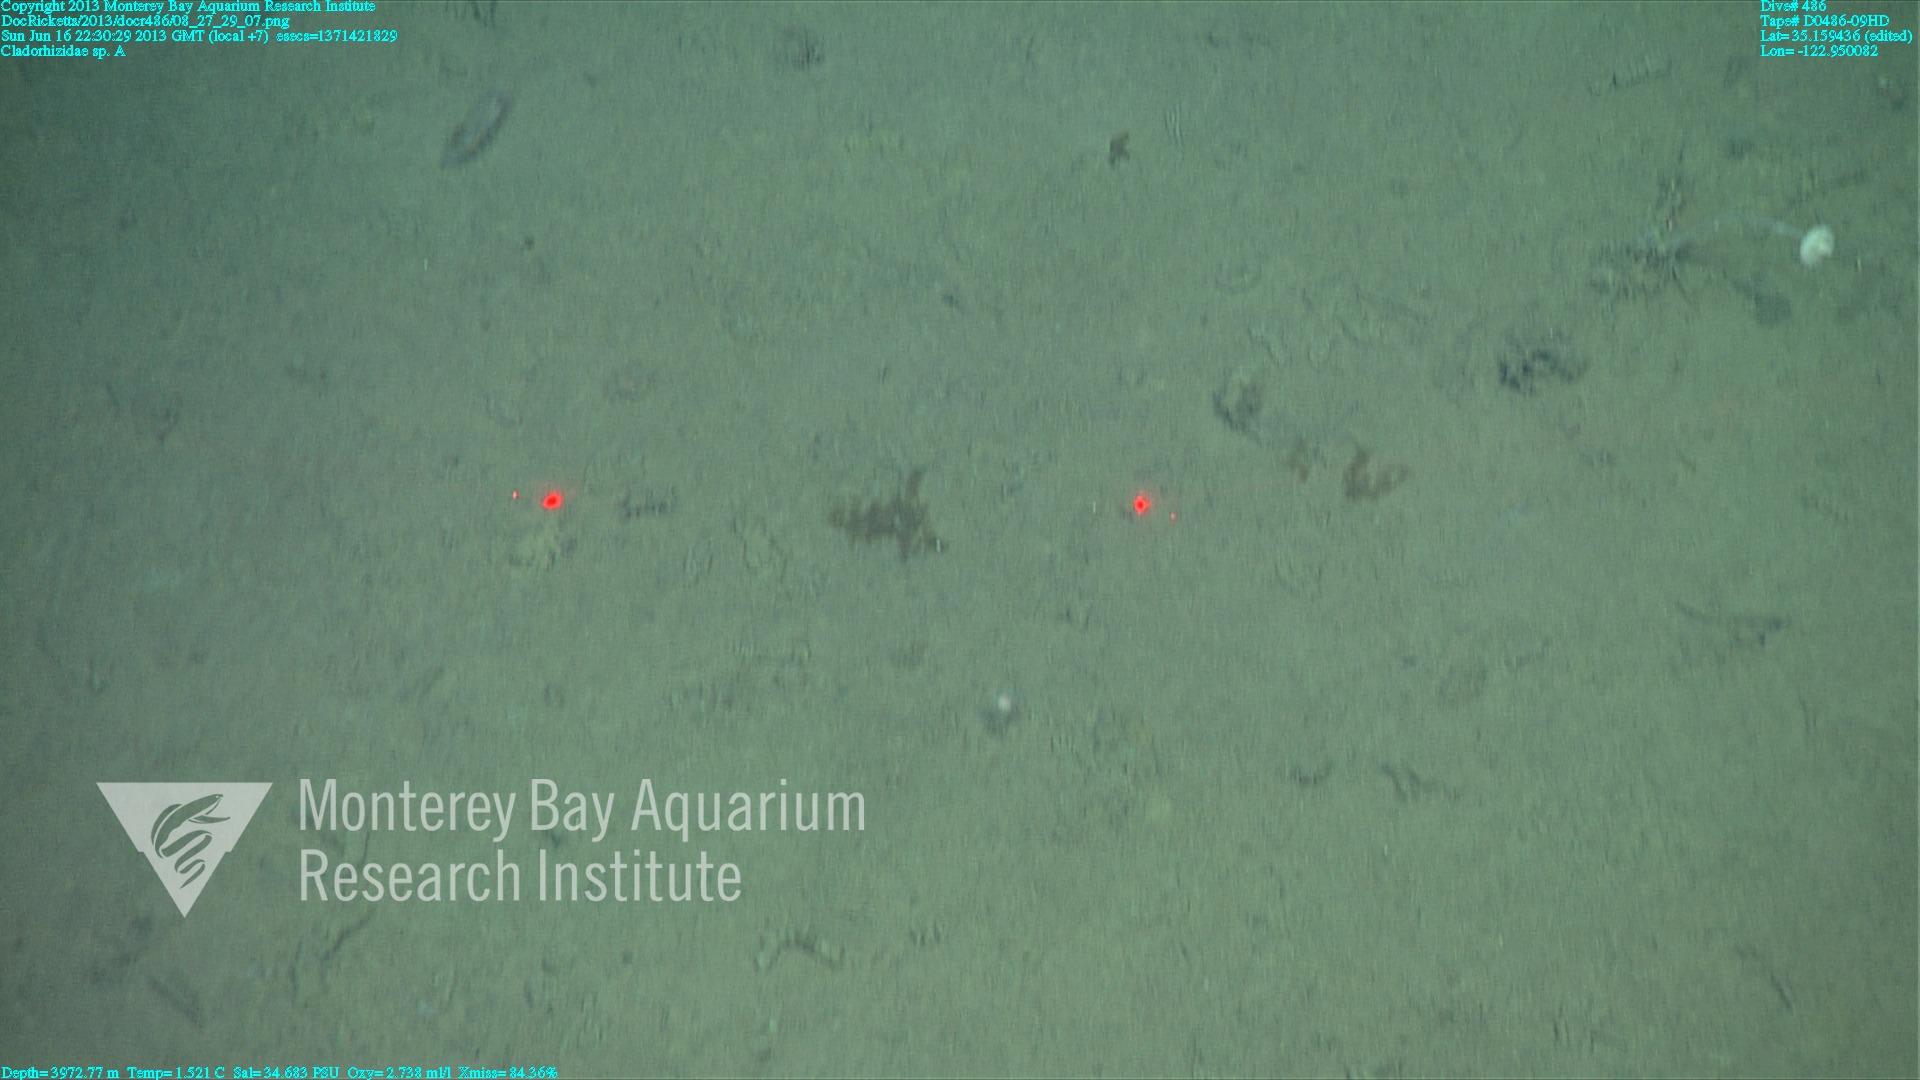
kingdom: Animalia
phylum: Porifera
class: Demospongiae
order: Poecilosclerida
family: Cladorhizidae
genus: Cladorhiza
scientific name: Cladorhiza
